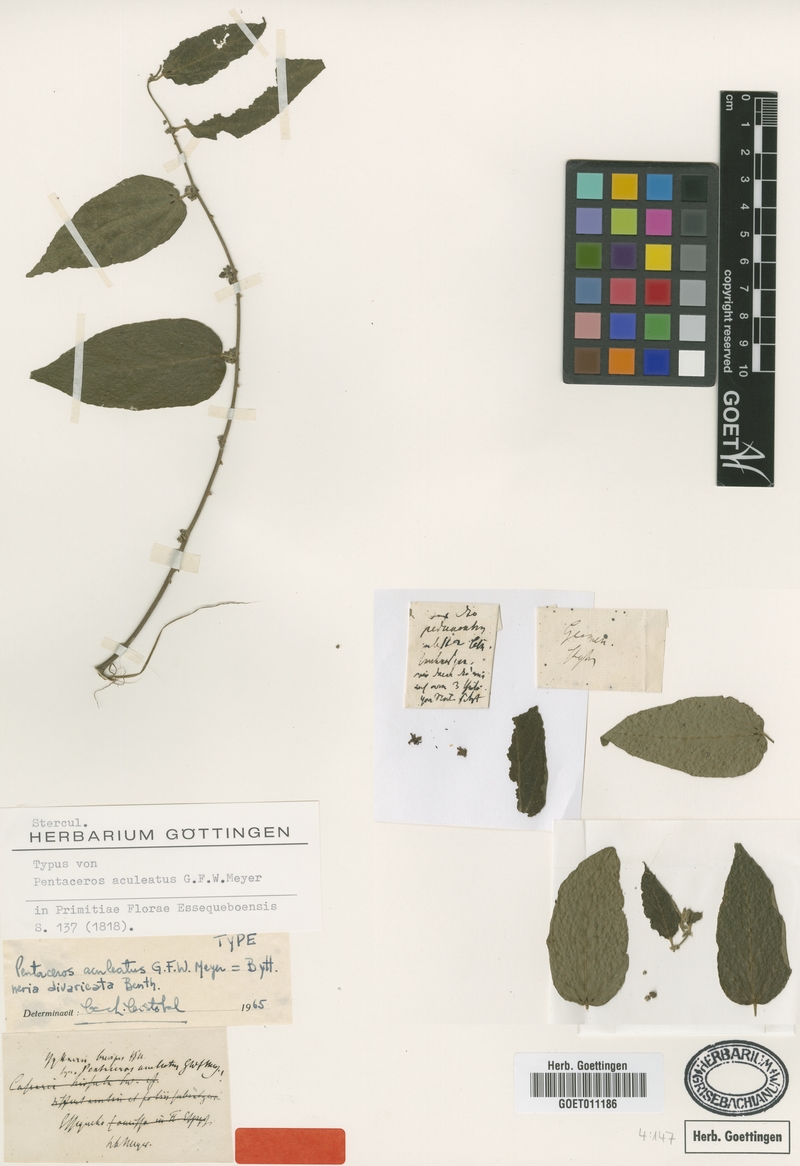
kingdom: Plantae
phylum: Tracheophyta
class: Magnoliopsida
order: Malvales
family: Malvaceae
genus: Byttneria
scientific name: Byttneria divaricata
